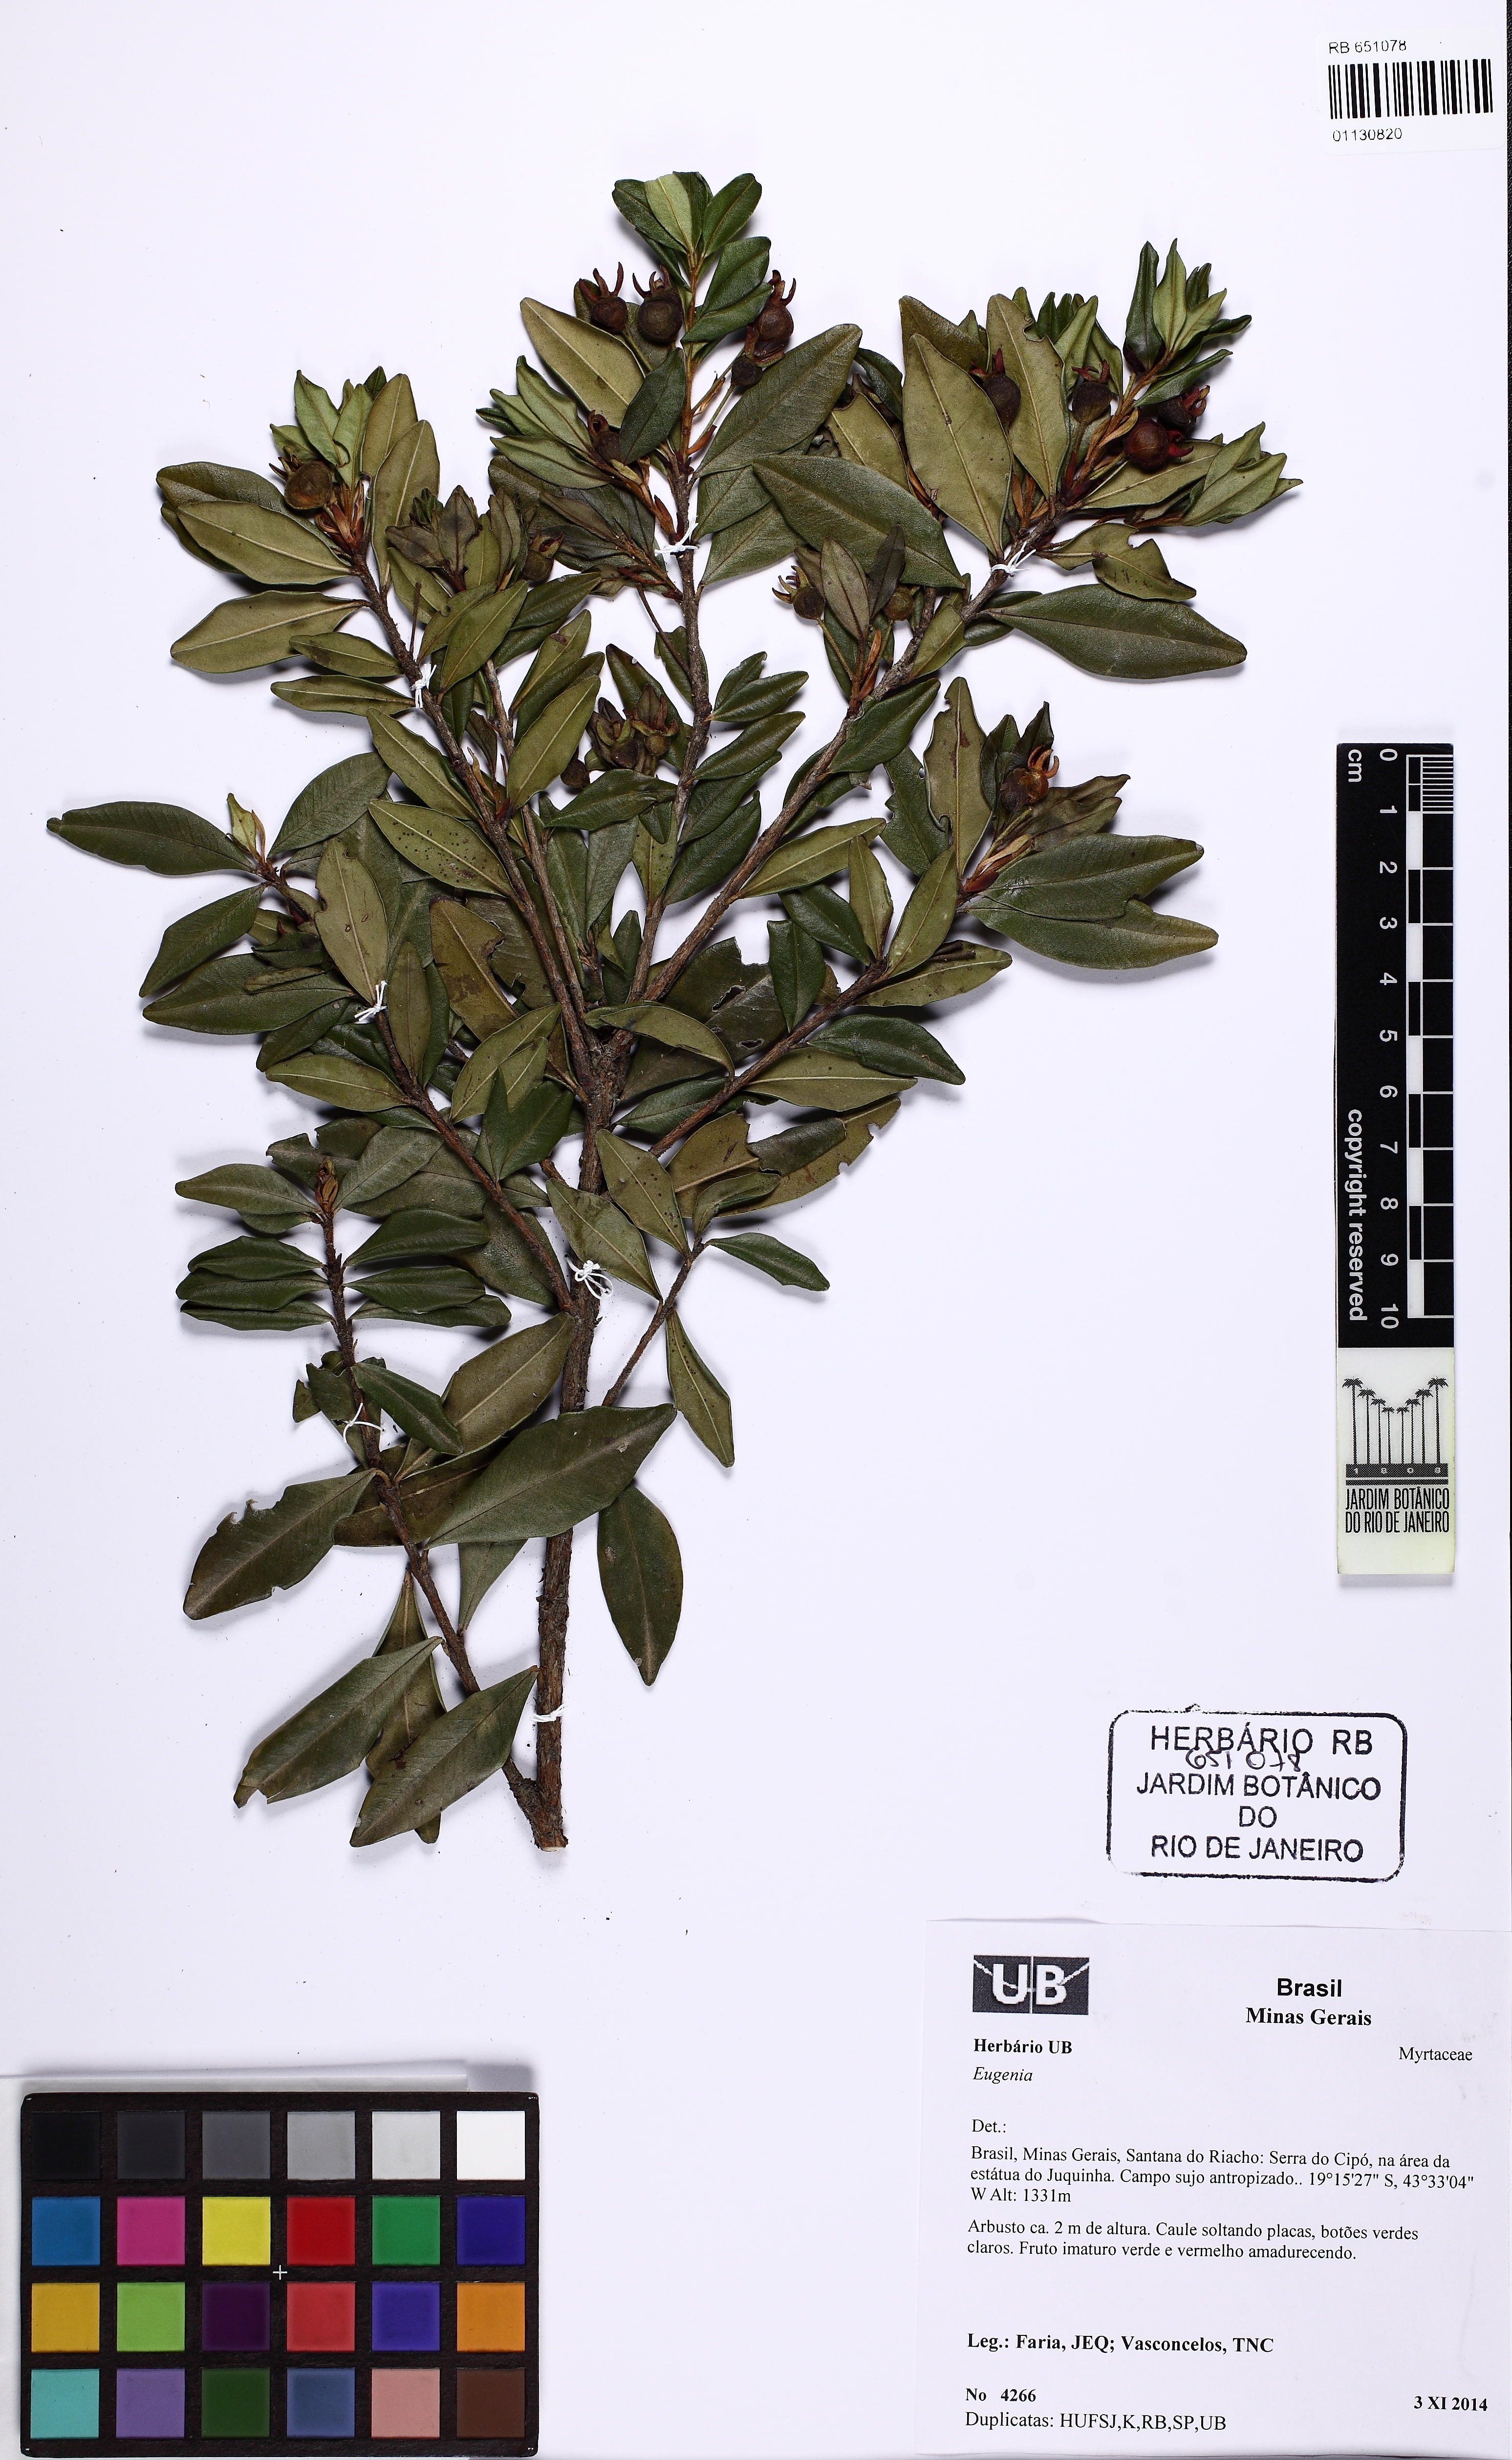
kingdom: Plantae
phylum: Tracheophyta
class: Magnoliopsida
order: Myrtales
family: Myrtaceae
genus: Eugenia
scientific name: Eugenia longipedunculata
